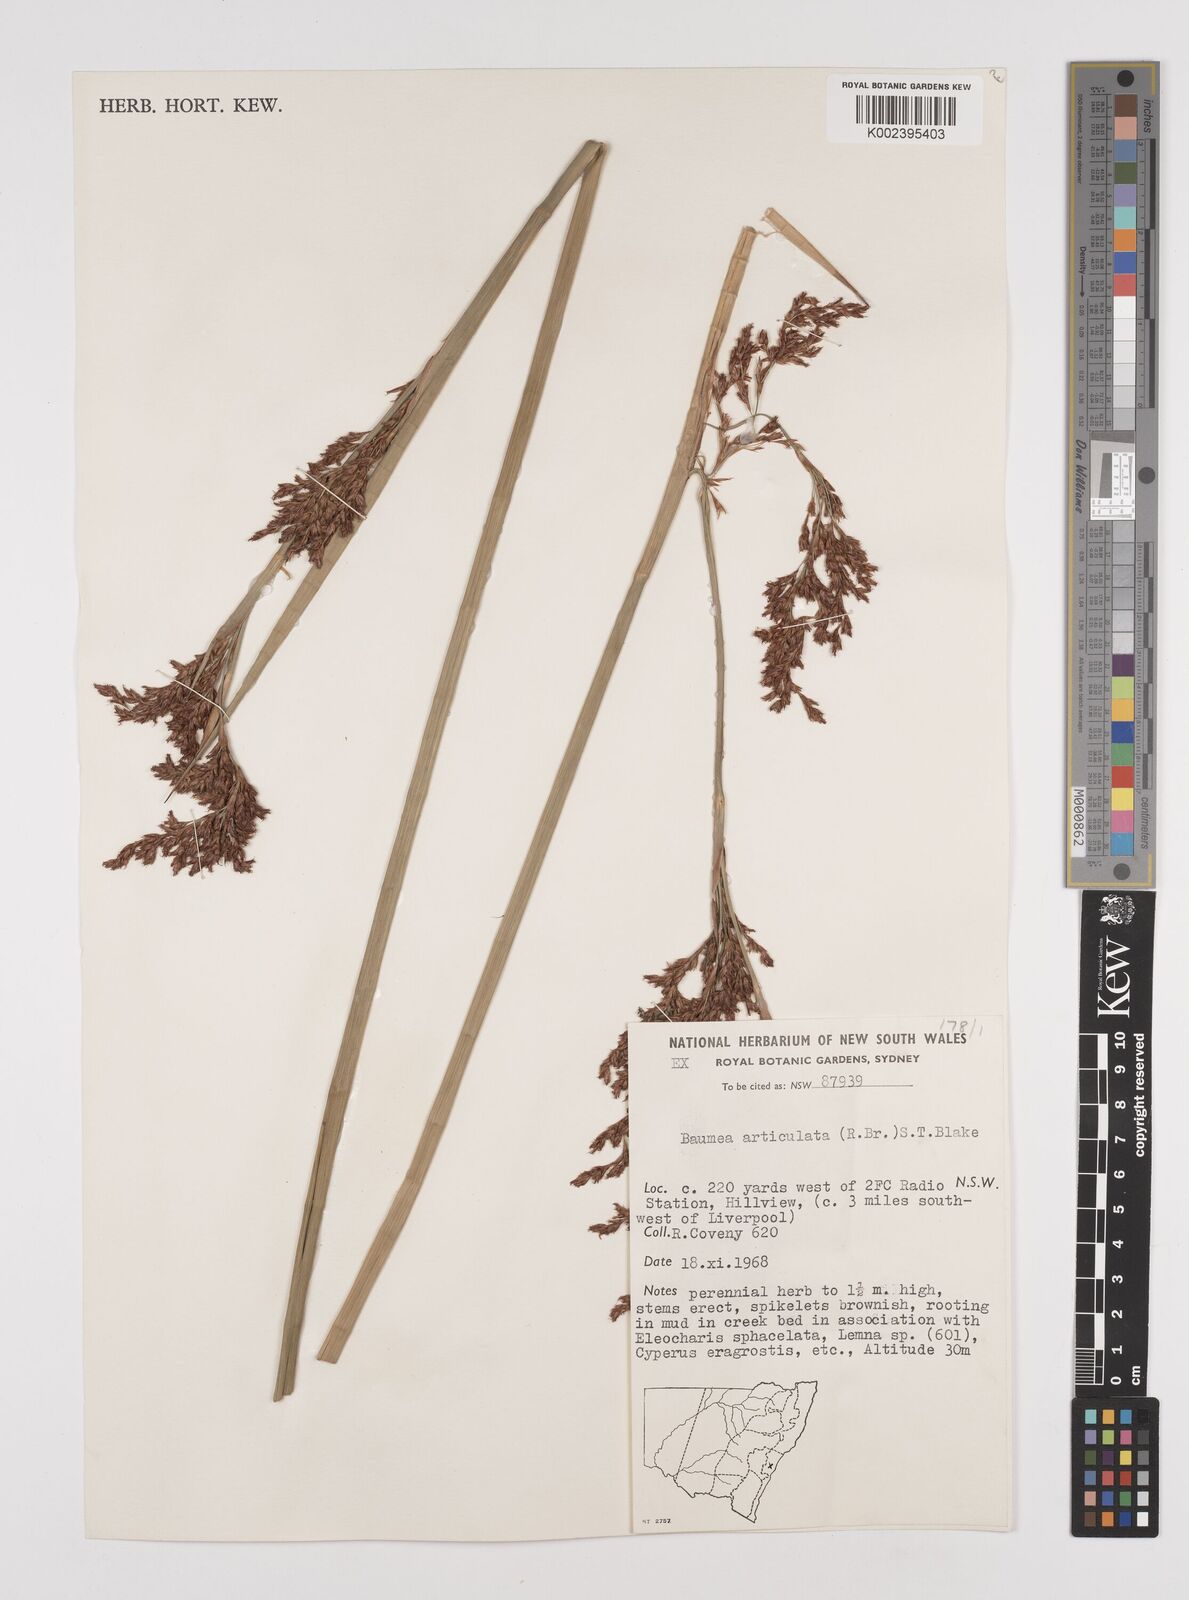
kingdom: Plantae
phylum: Tracheophyta
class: Liliopsida
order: Poales
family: Cyperaceae
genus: Machaerina
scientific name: Machaerina articulata
